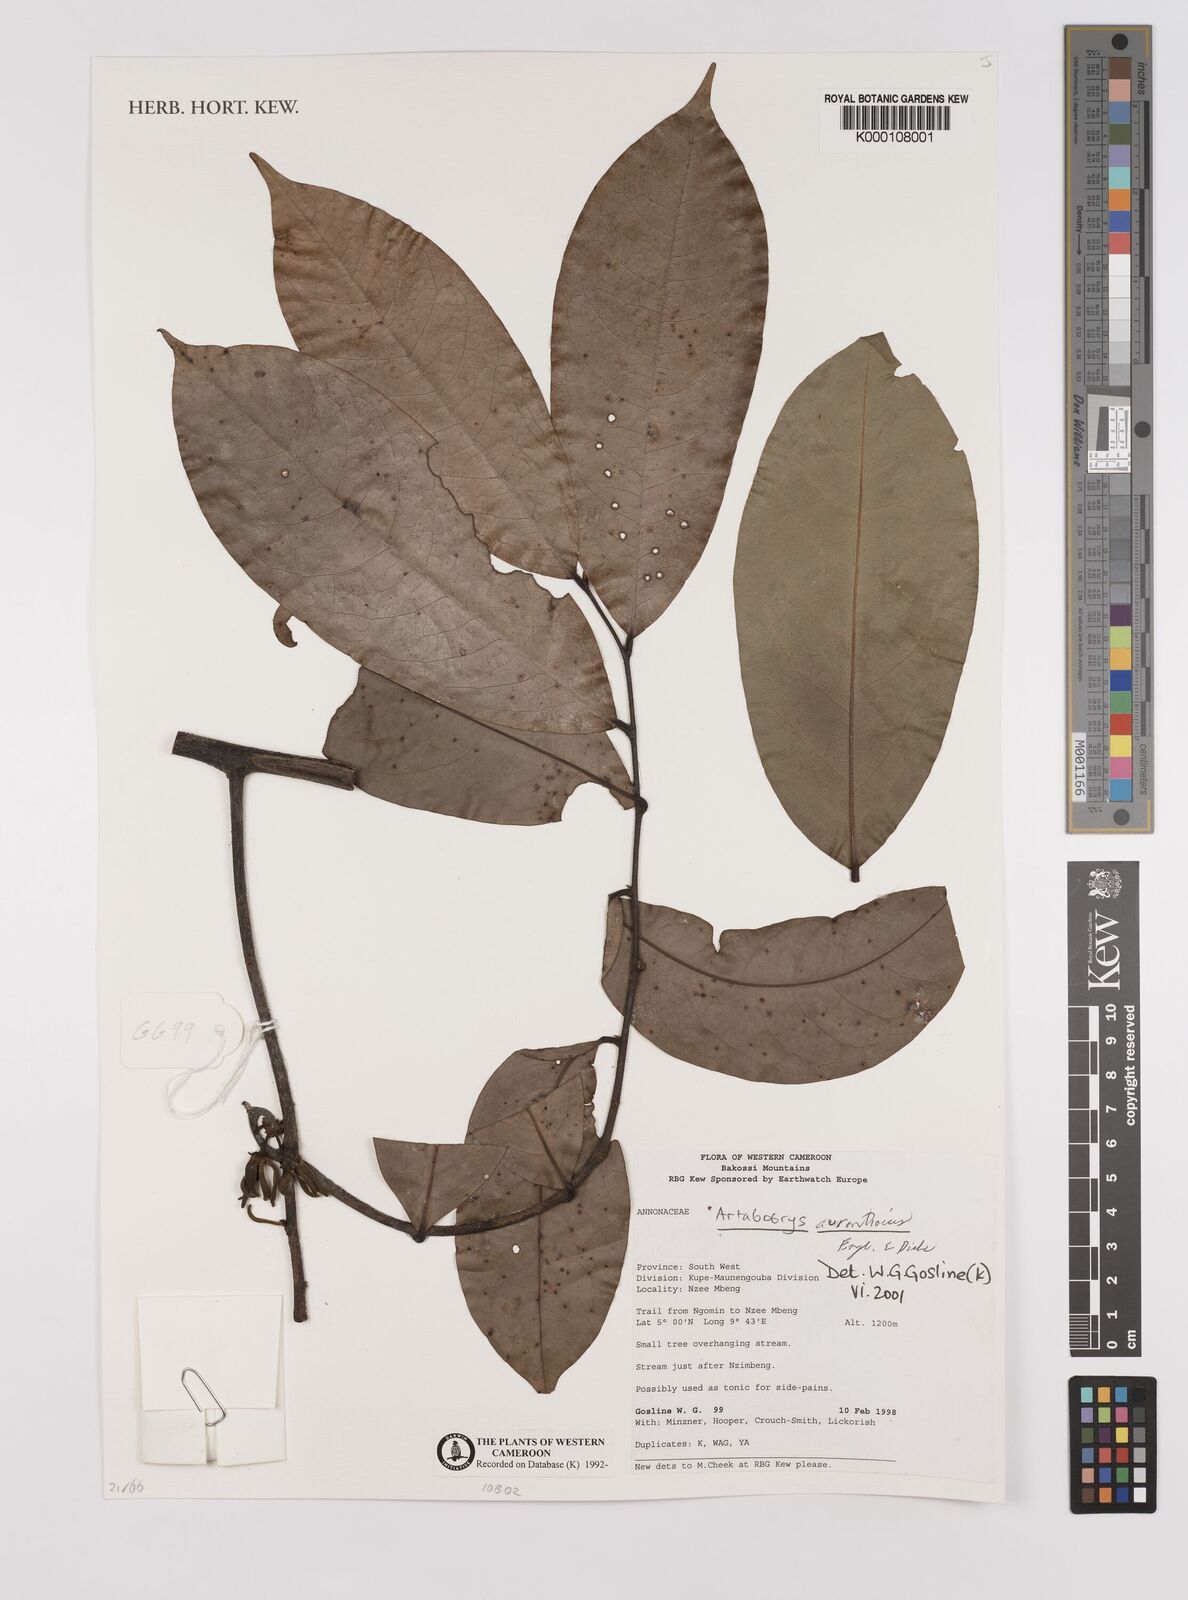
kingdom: Plantae
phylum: Tracheophyta
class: Magnoliopsida
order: Magnoliales
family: Annonaceae
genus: Artabotrys
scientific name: Artabotrys aurantiacus
